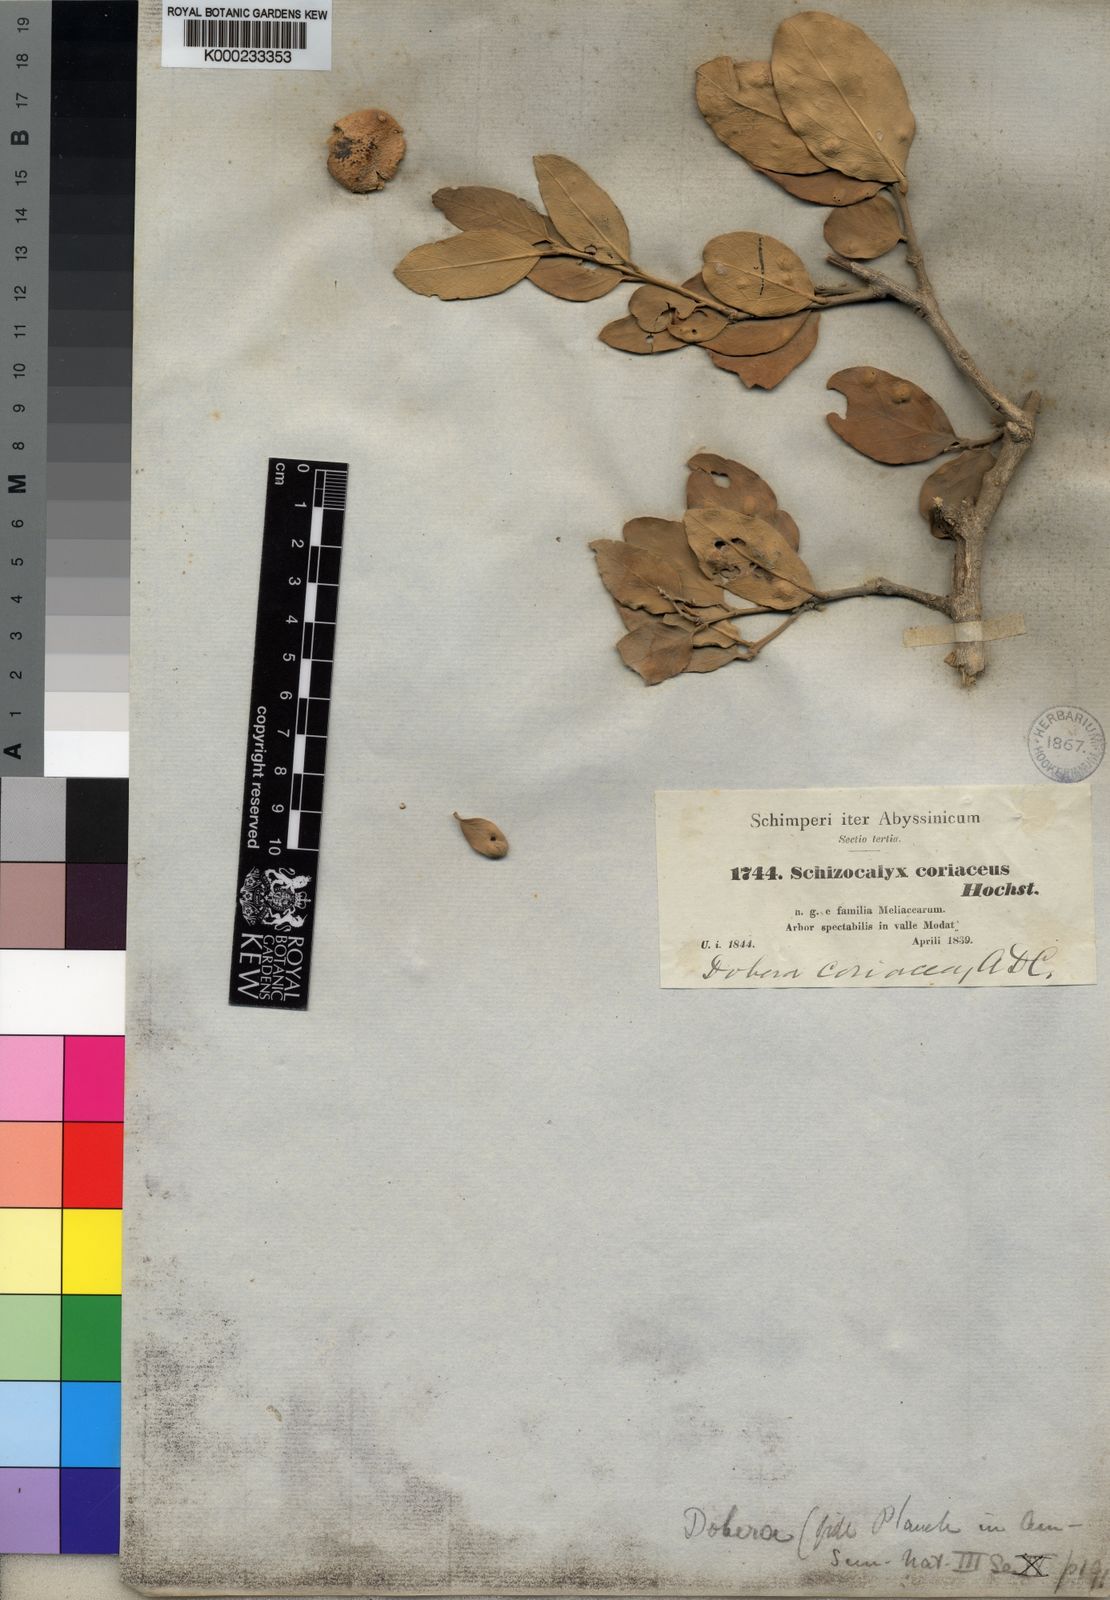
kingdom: Plantae
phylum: Tracheophyta
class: Magnoliopsida
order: Brassicales
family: Salvadoraceae
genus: Dobera
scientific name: Dobera glabra
